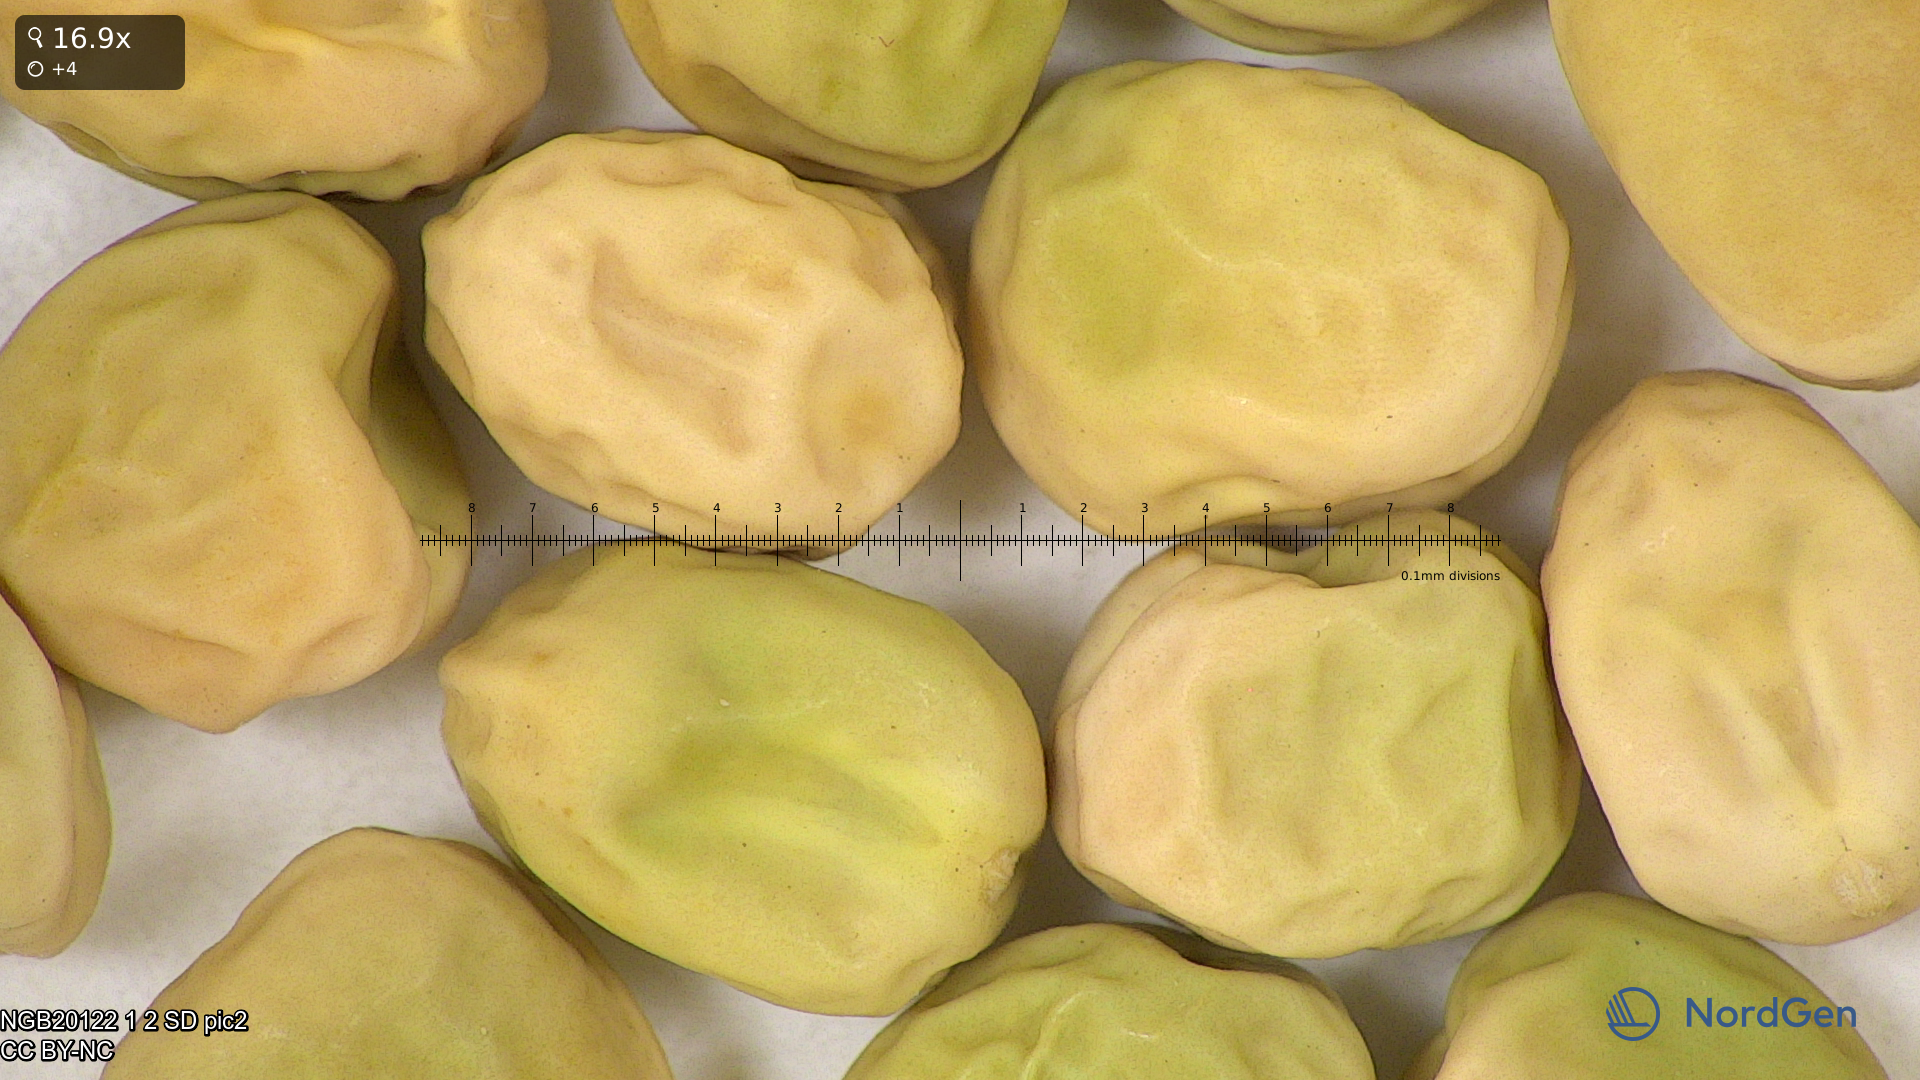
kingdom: Plantae
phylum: Tracheophyta
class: Magnoliopsida
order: Fabales
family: Fabaceae
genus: Lathyrus
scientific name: Lathyrus oleraceus
